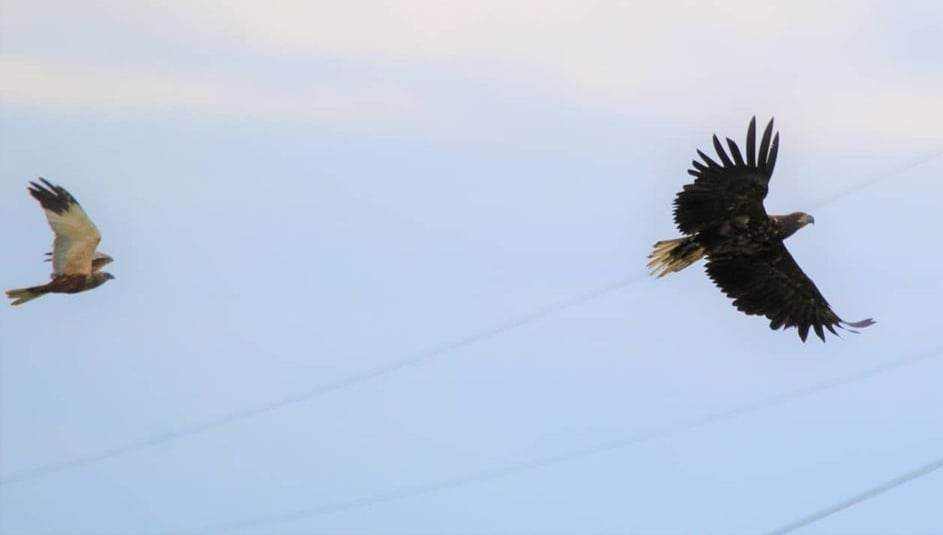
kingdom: Animalia
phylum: Chordata
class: Aves
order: Accipitriformes
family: Accipitridae
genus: Haliaeetus
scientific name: Haliaeetus albicilla
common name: Havørn
